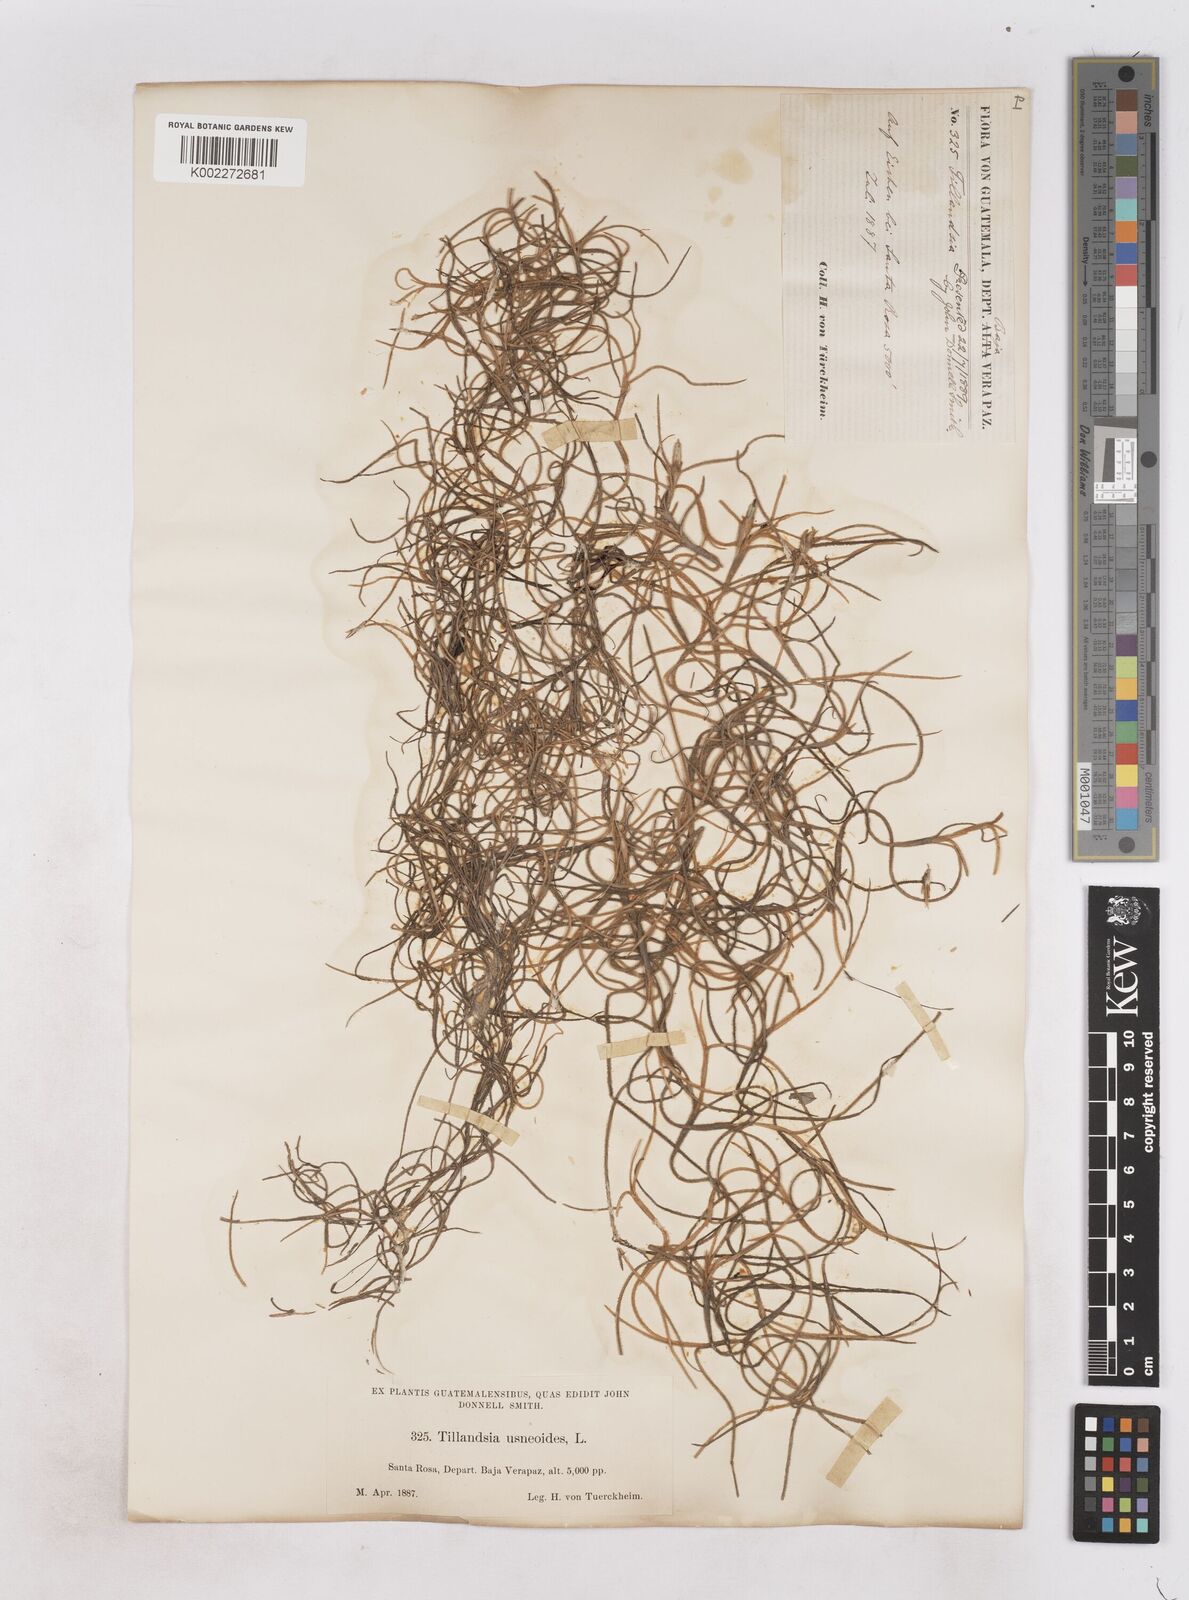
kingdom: Plantae
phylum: Tracheophyta
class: Liliopsida
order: Poales
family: Bromeliaceae
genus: Tillandsia
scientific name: Tillandsia usneoides
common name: Spanish moss
